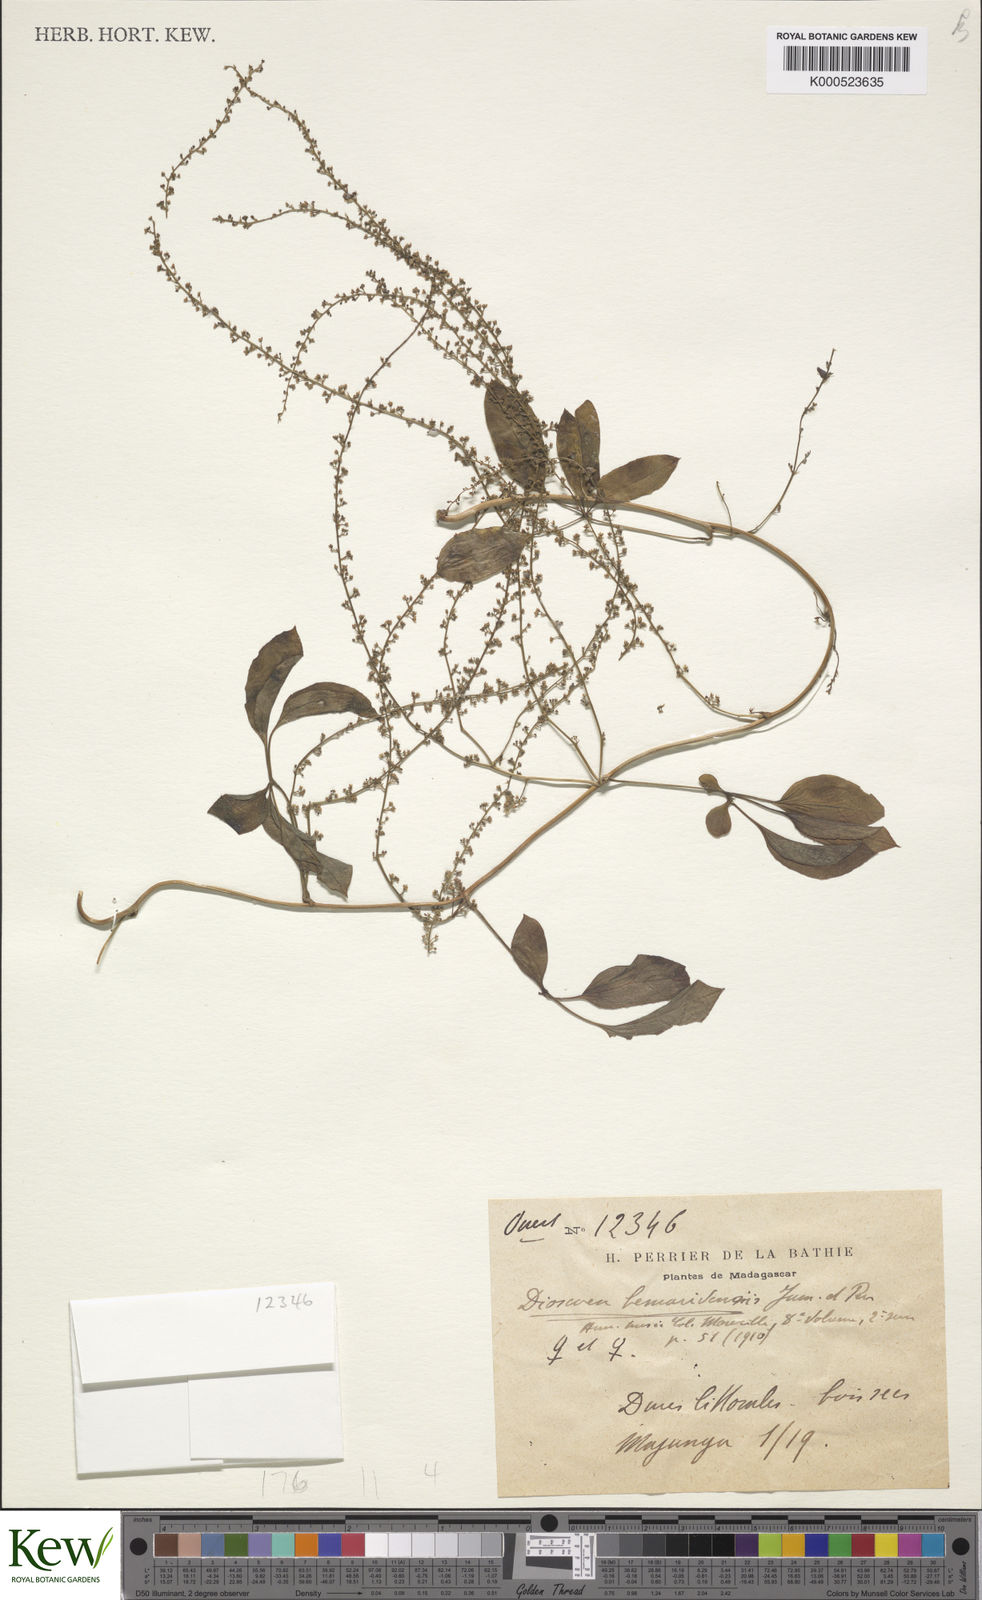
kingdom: Plantae
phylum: Tracheophyta
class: Liliopsida
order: Dioscoreales
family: Dioscoreaceae
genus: Dioscorea
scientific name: Dioscorea bemarivensis
